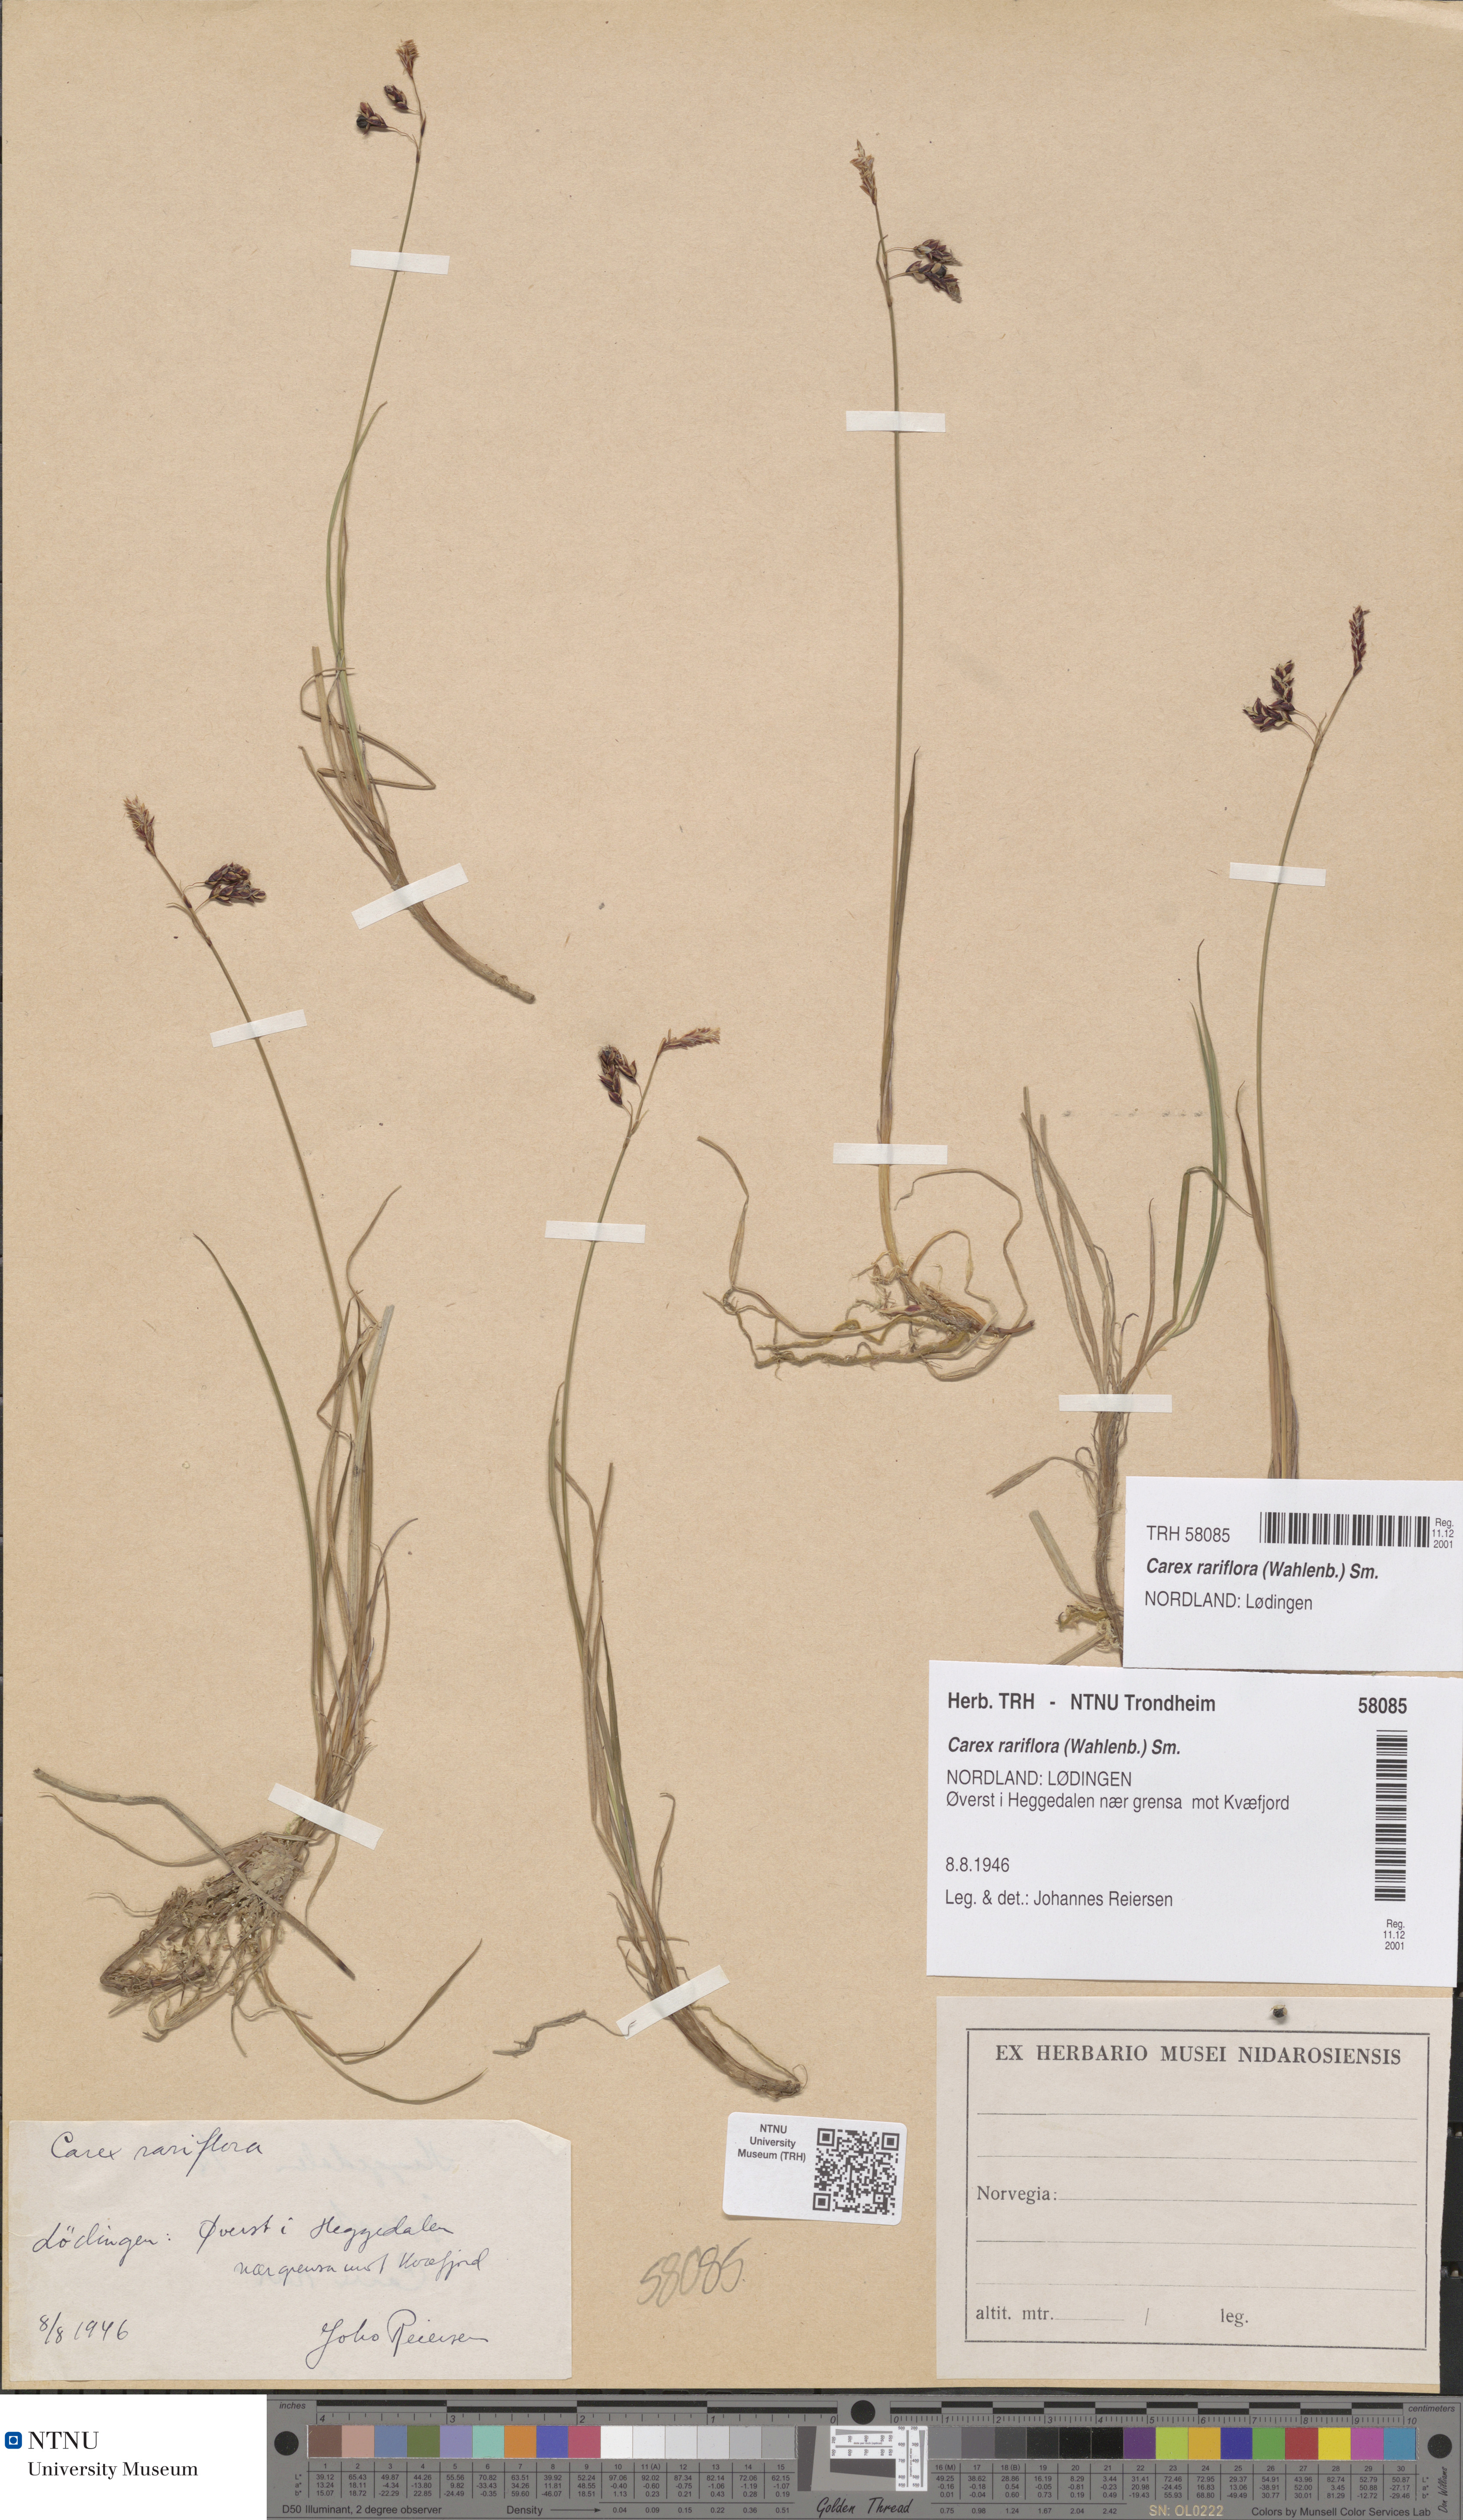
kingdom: Plantae
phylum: Tracheophyta
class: Liliopsida
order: Poales
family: Cyperaceae
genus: Carex
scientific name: Carex rariflora
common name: Loose-flowered alpine sedge
